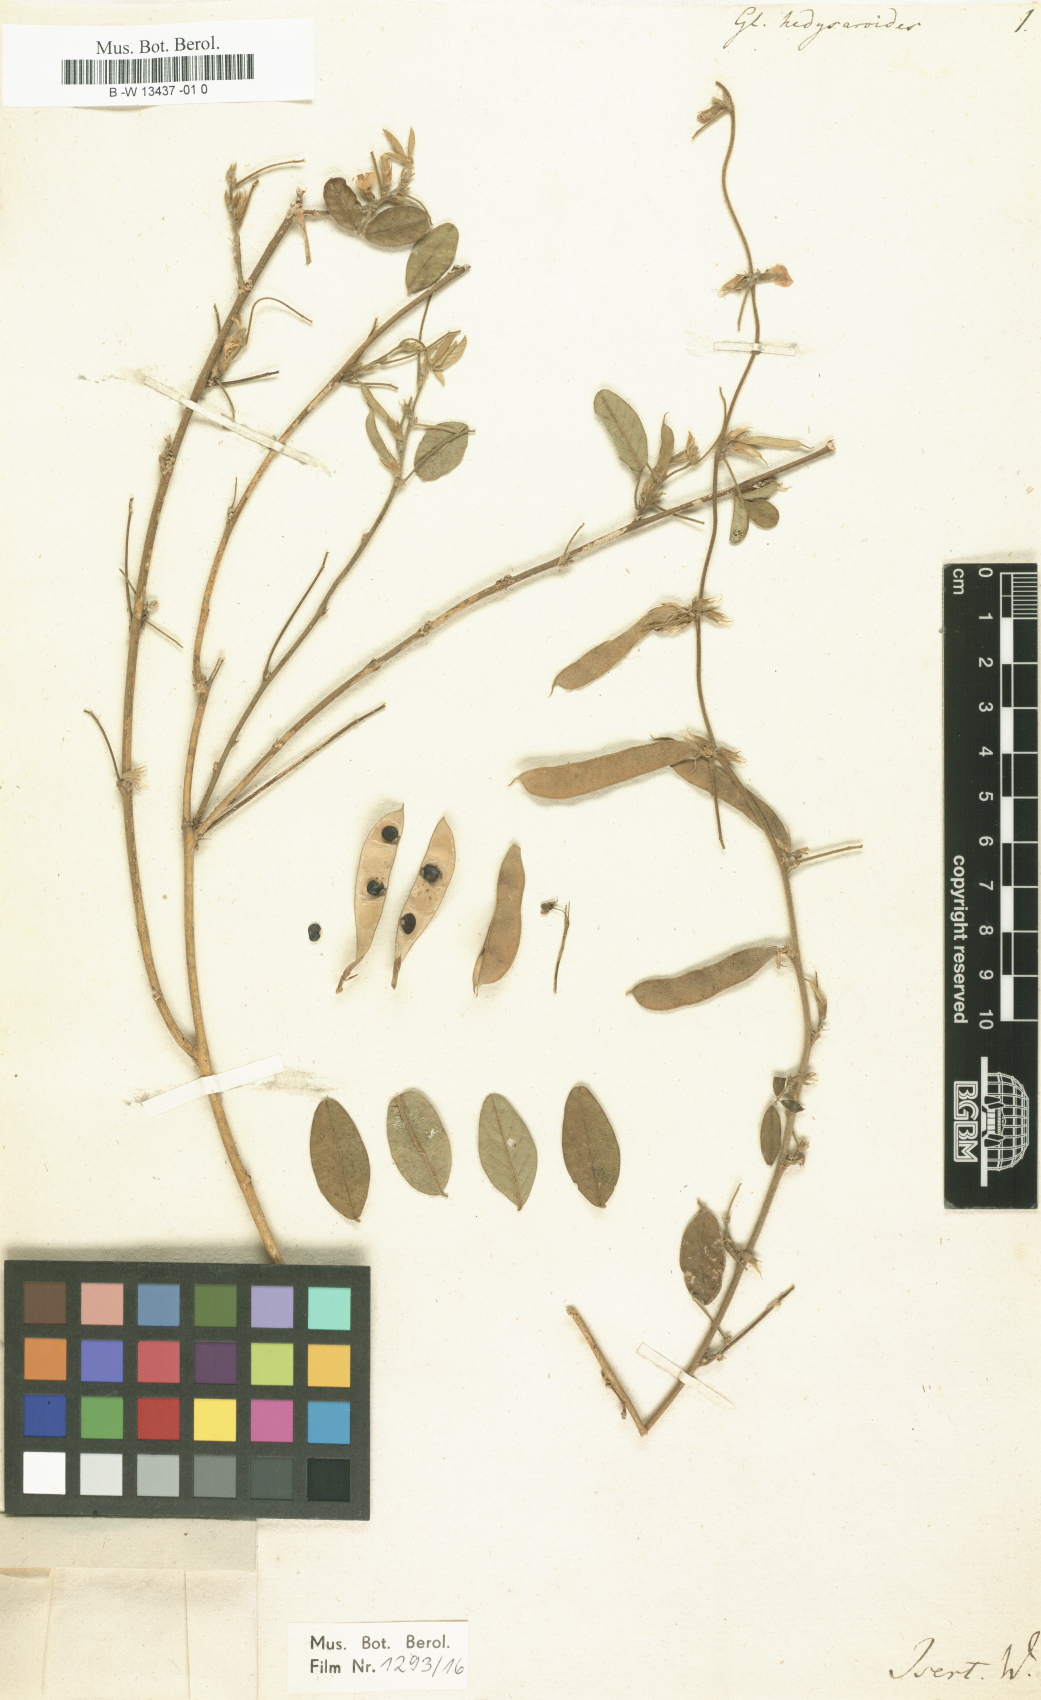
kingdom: Plantae
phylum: Tracheophyta
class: Magnoliopsida
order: Fabales
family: Fabaceae
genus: Ophrestia
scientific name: Ophrestia hedysaroides
